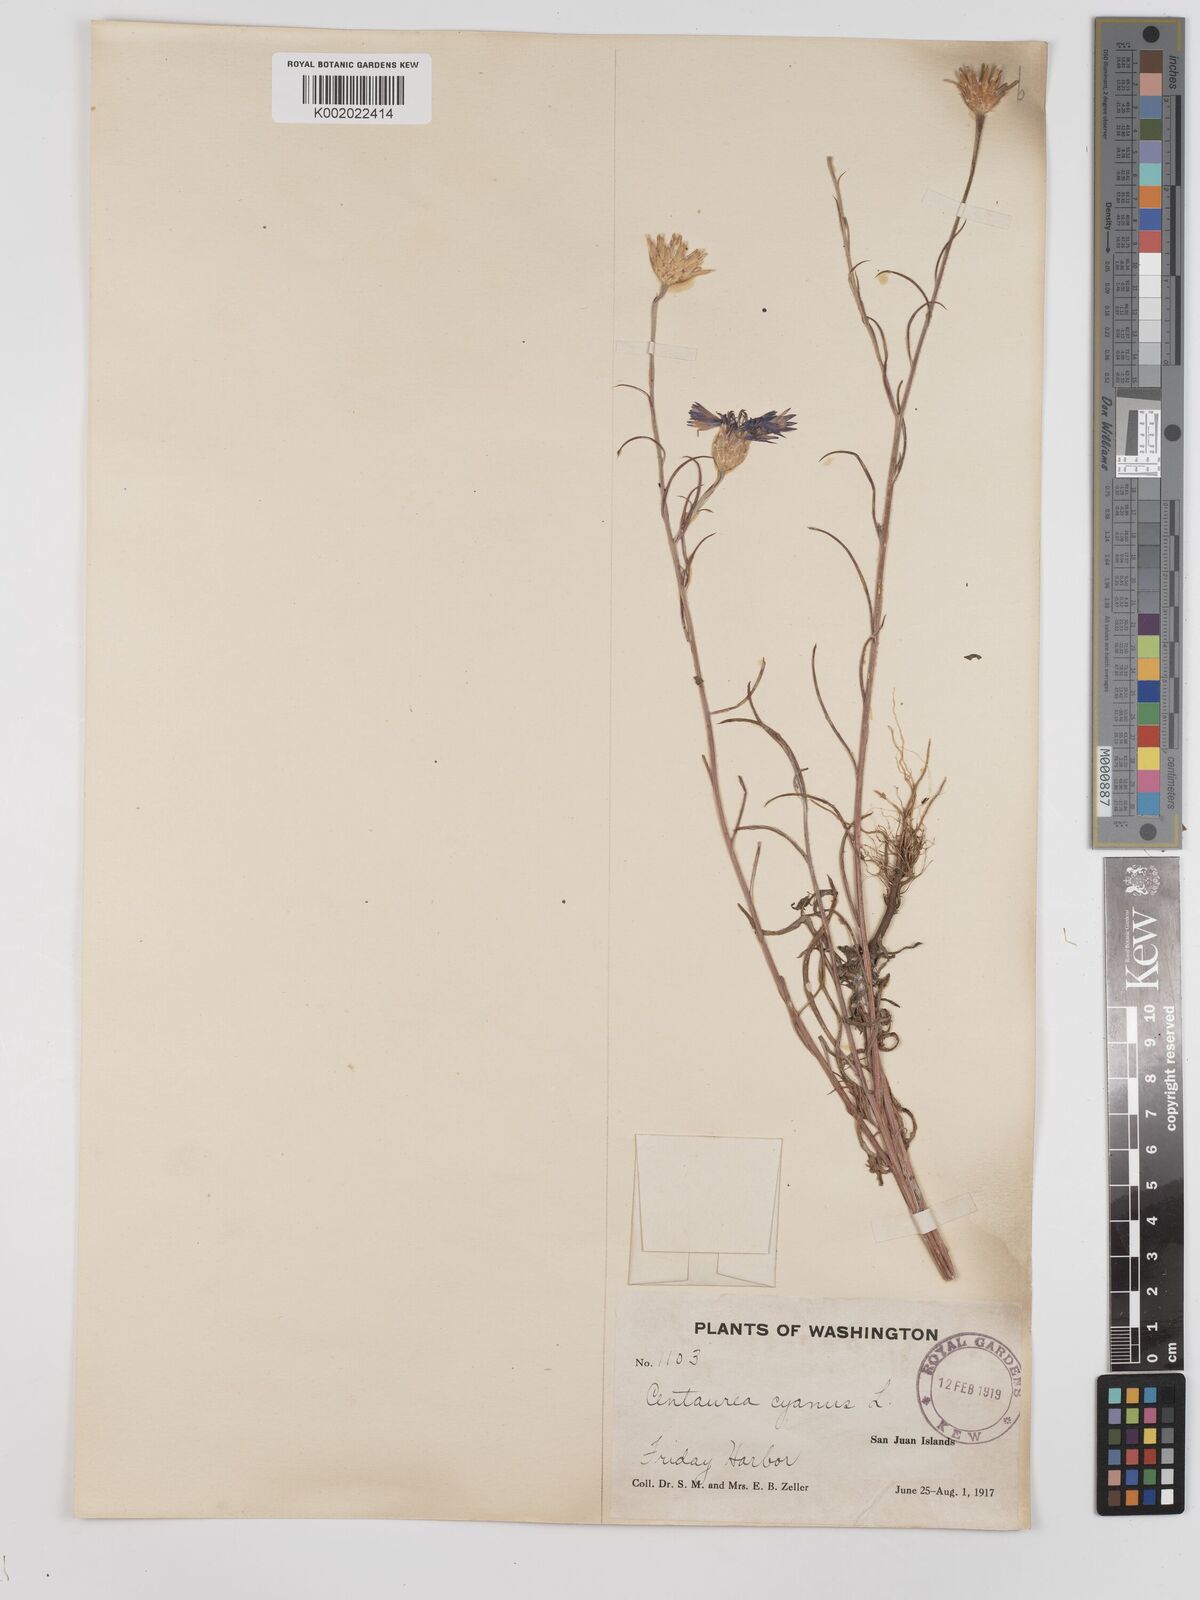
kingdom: Plantae
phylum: Tracheophyta
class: Magnoliopsida
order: Asterales
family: Asteraceae
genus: Centaurea
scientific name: Centaurea cyanus
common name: Cornflower
